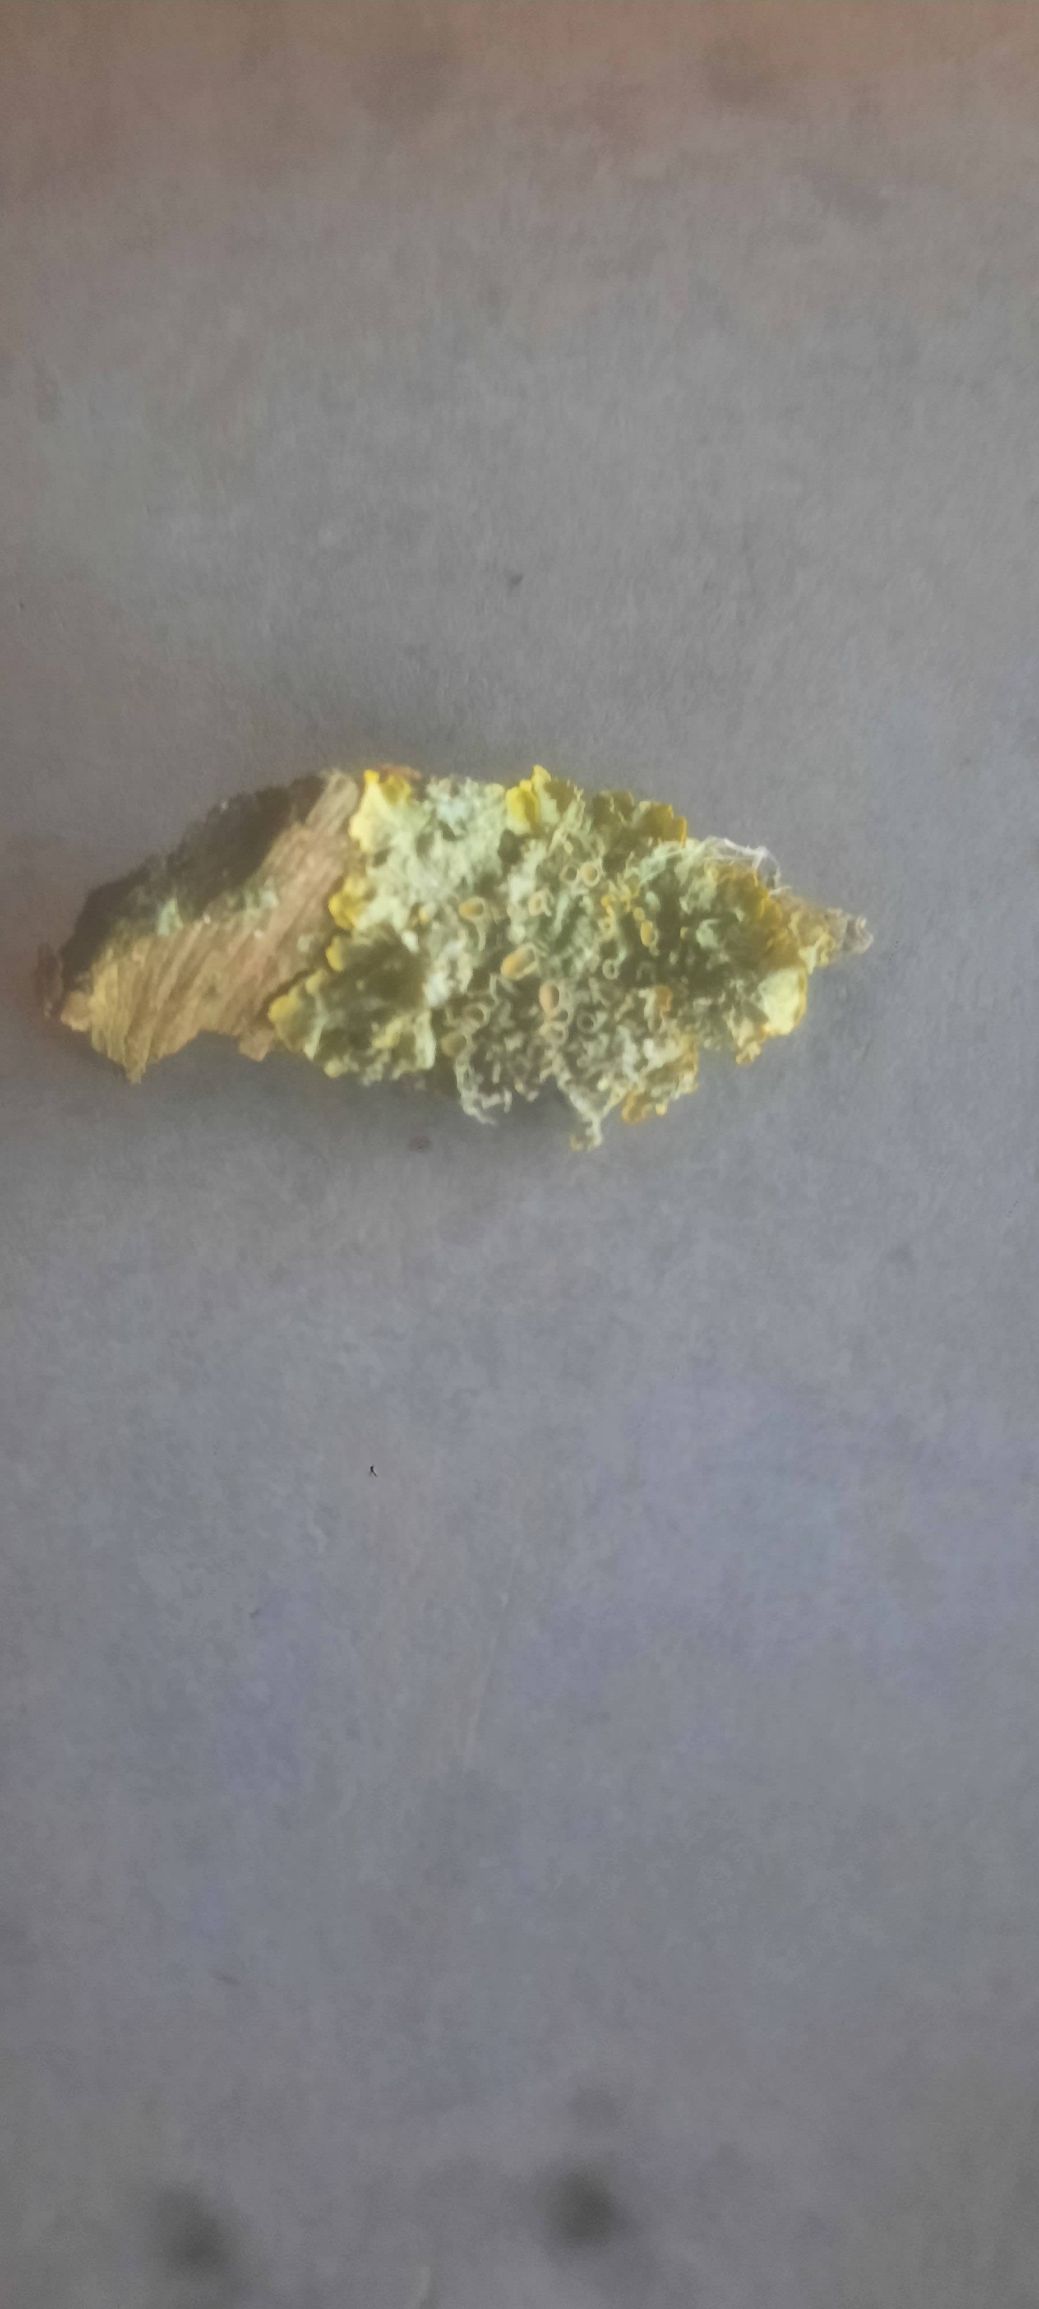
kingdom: Fungi
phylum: Ascomycota
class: Lecanoromycetes
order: Teloschistales
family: Teloschistaceae
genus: Xanthoria
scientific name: Xanthoria parietina
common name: Almindelig væggelav
